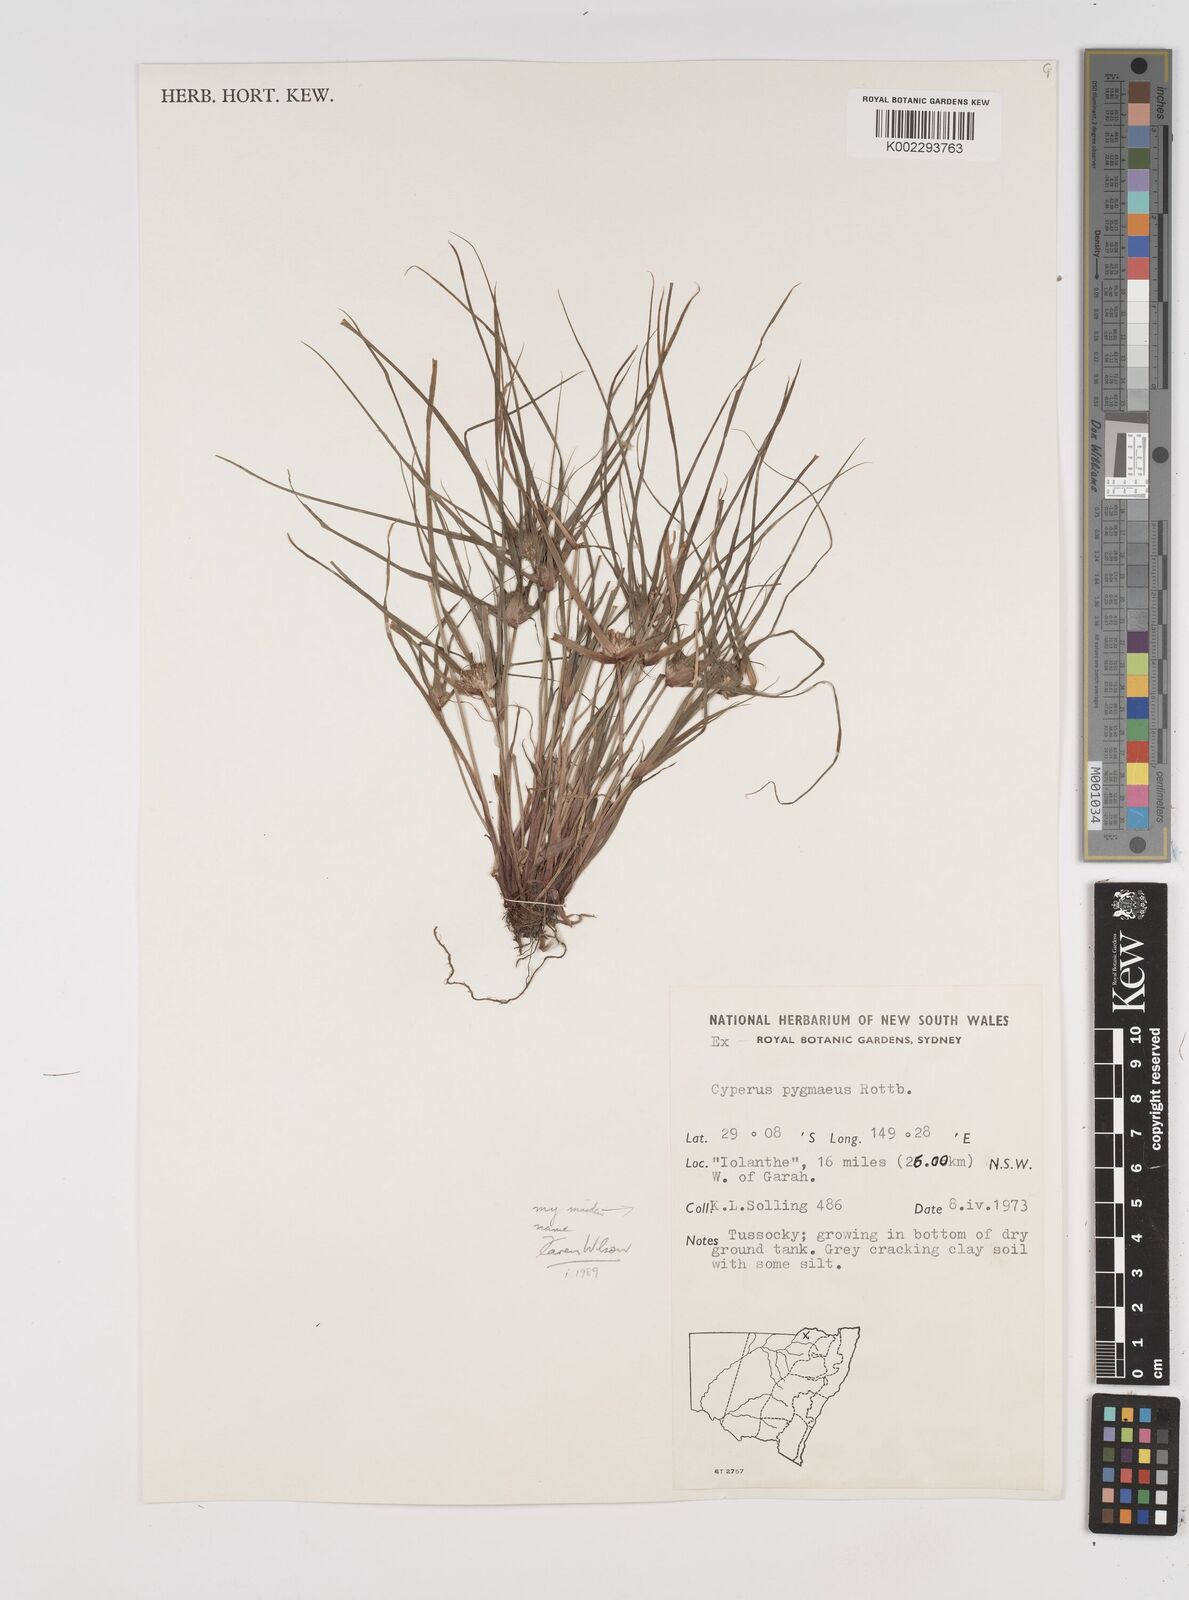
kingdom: Plantae
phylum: Tracheophyta
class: Liliopsida
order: Poales
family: Cyperaceae
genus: Cyperus
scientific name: Cyperus michelianus
